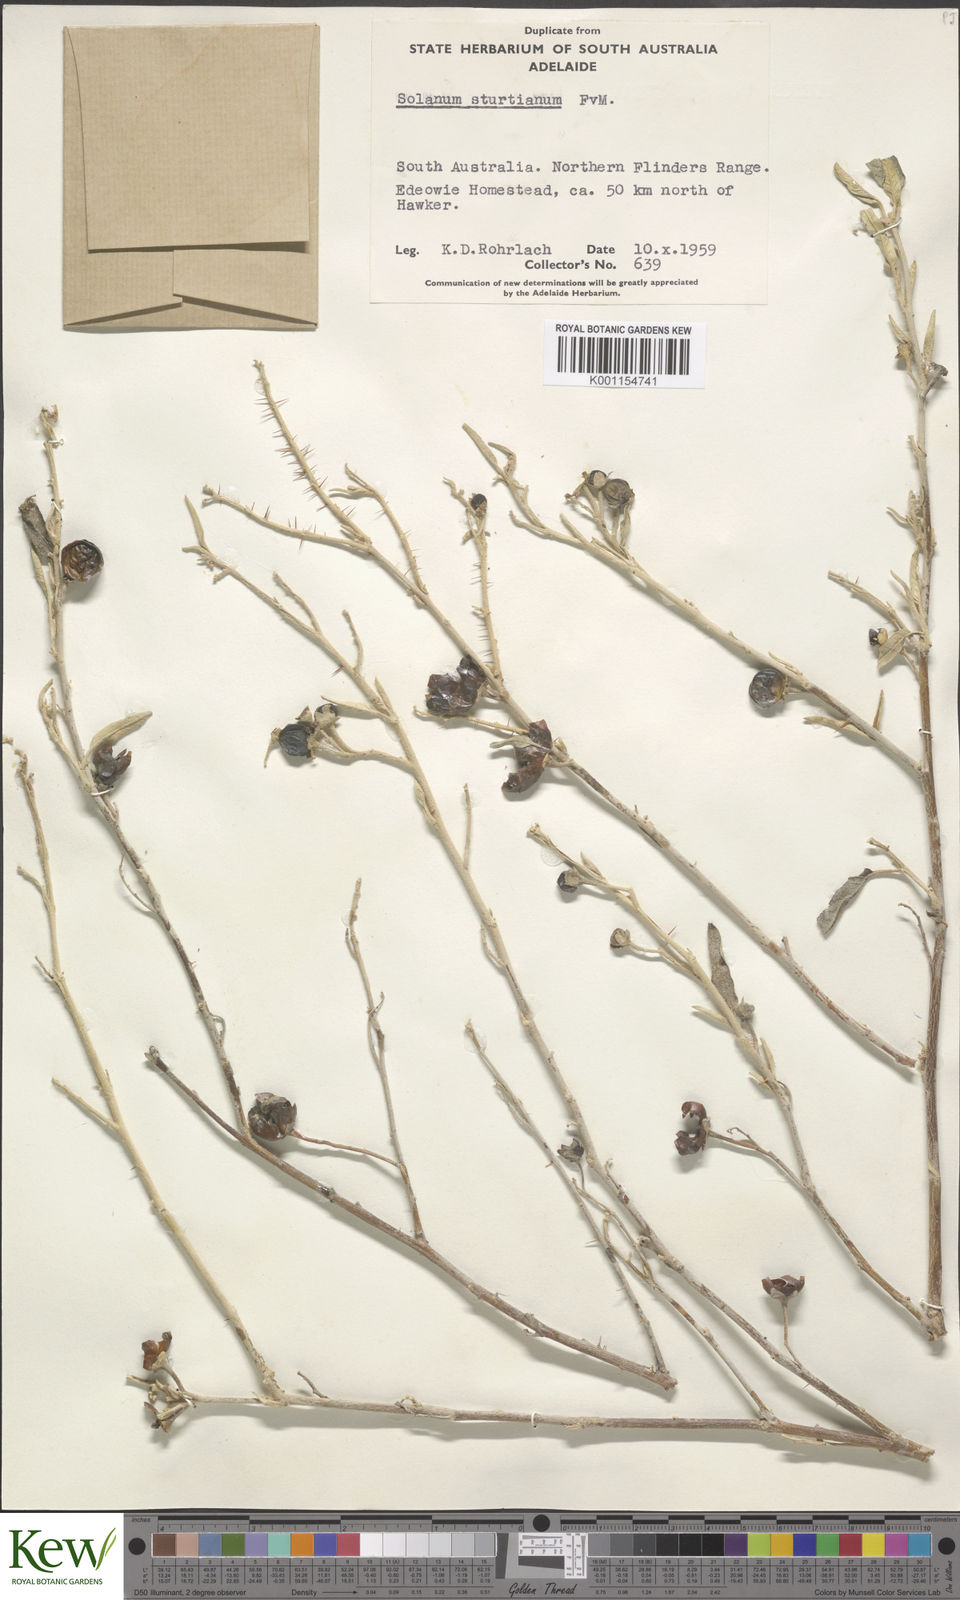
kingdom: Plantae
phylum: Tracheophyta
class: Magnoliopsida
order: Solanales
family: Solanaceae
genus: Solanum
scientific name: Solanum sturtianum
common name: Thargomindah nightshade
